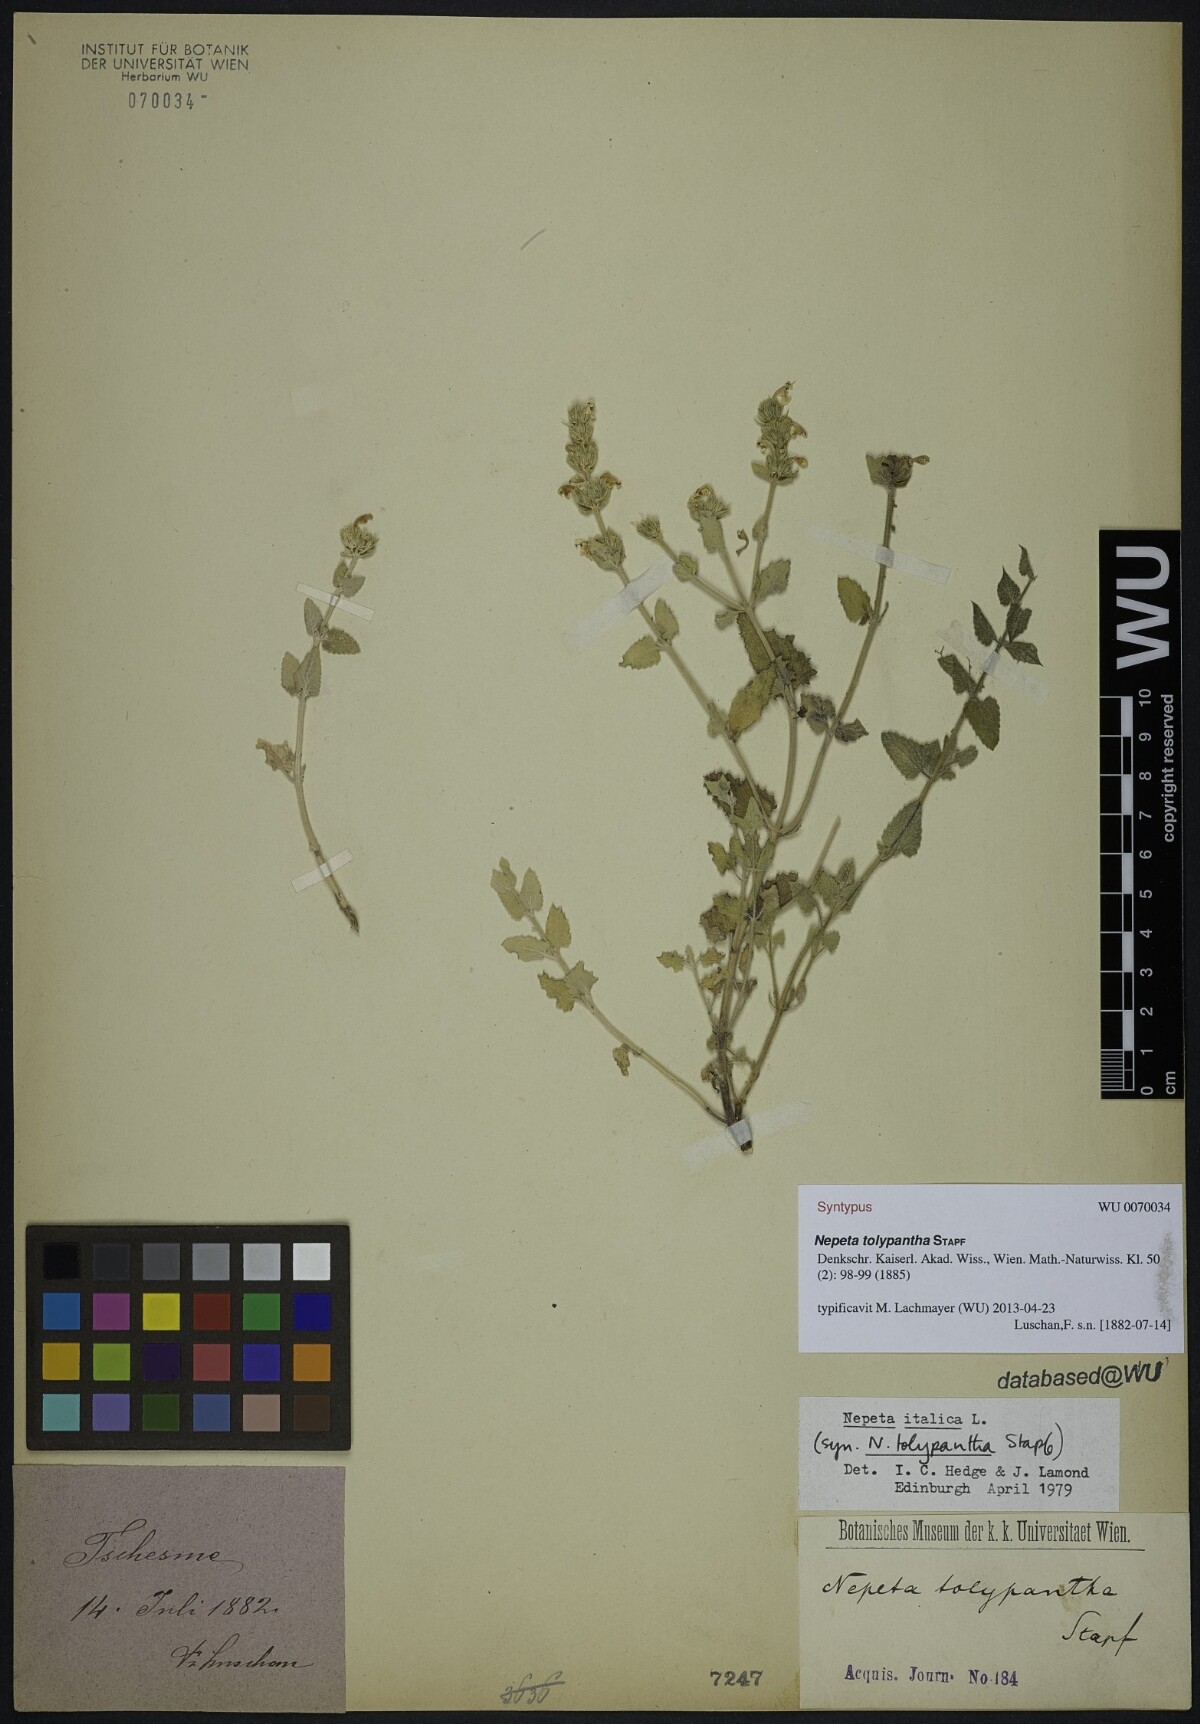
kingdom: Plantae
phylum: Tracheophyta
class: Magnoliopsida
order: Lamiales
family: Lamiaceae
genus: Nepeta
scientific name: Nepeta tolypantha
